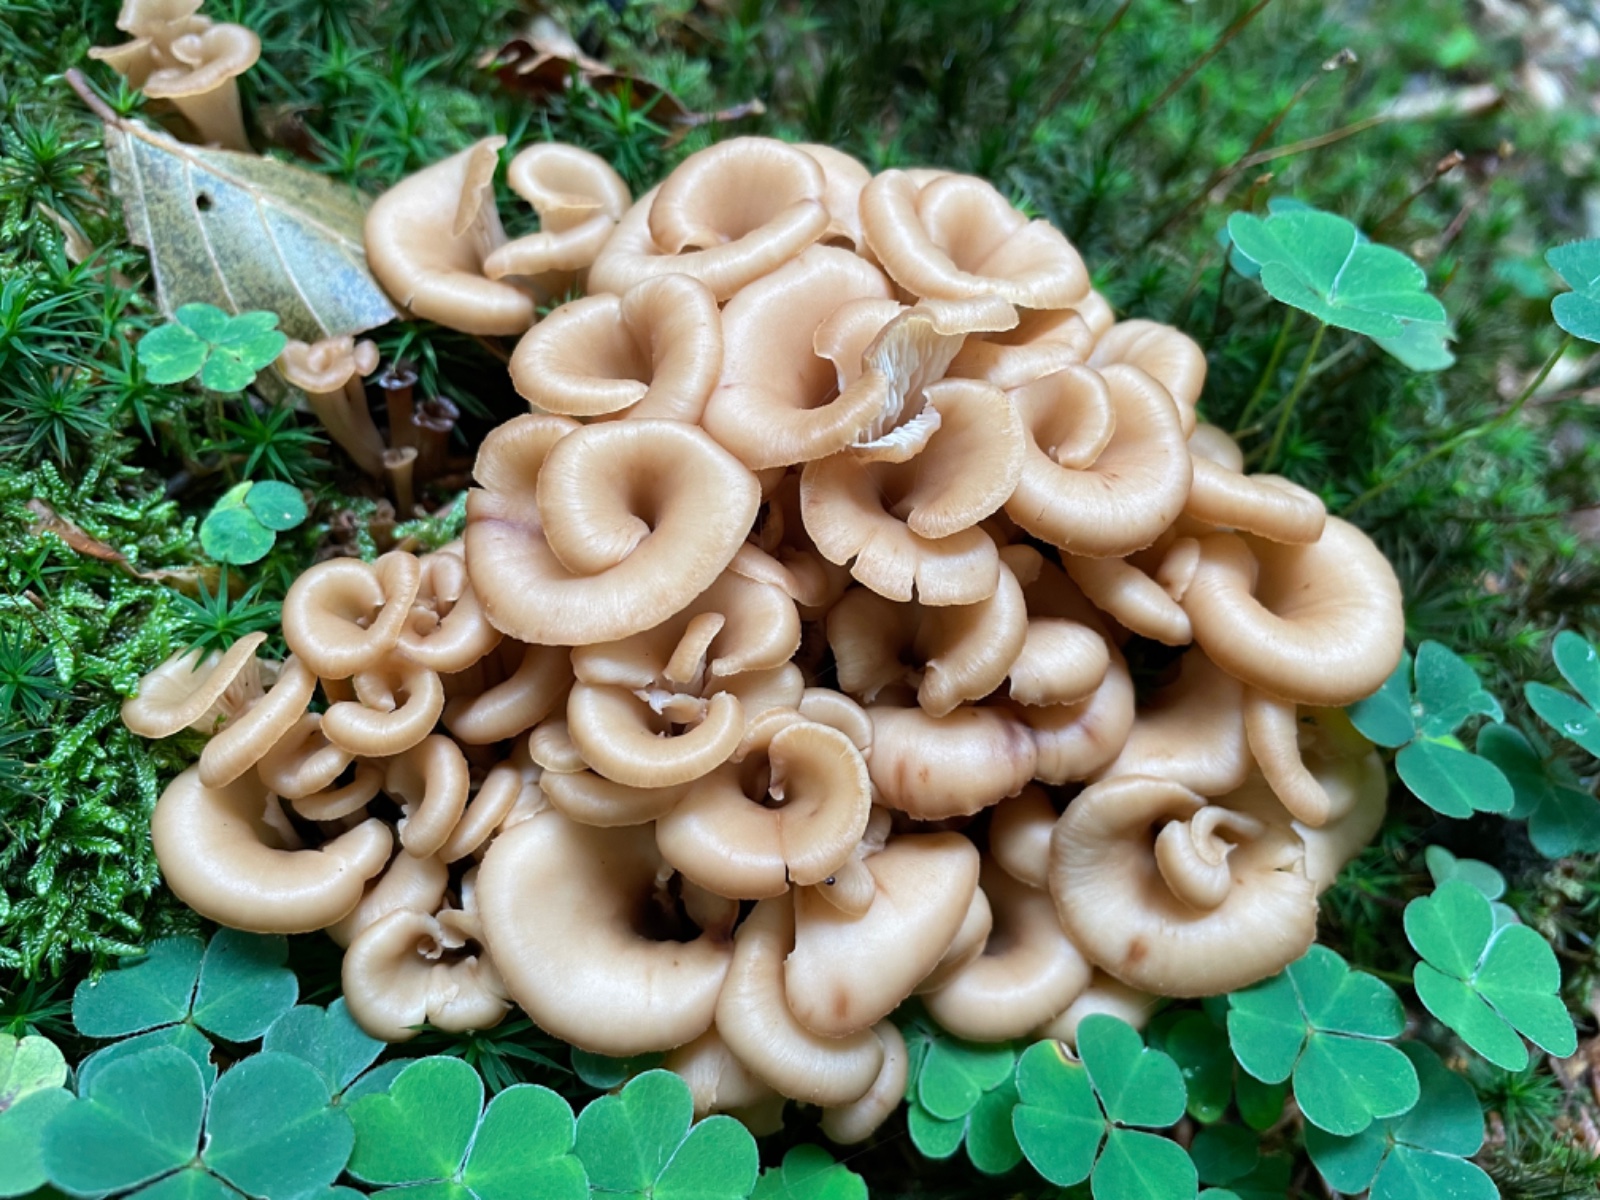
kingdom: Fungi
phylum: Basidiomycota
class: Agaricomycetes
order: Russulales
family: Auriscalpiaceae
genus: Lentinellus
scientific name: Lentinellus cochleatus
